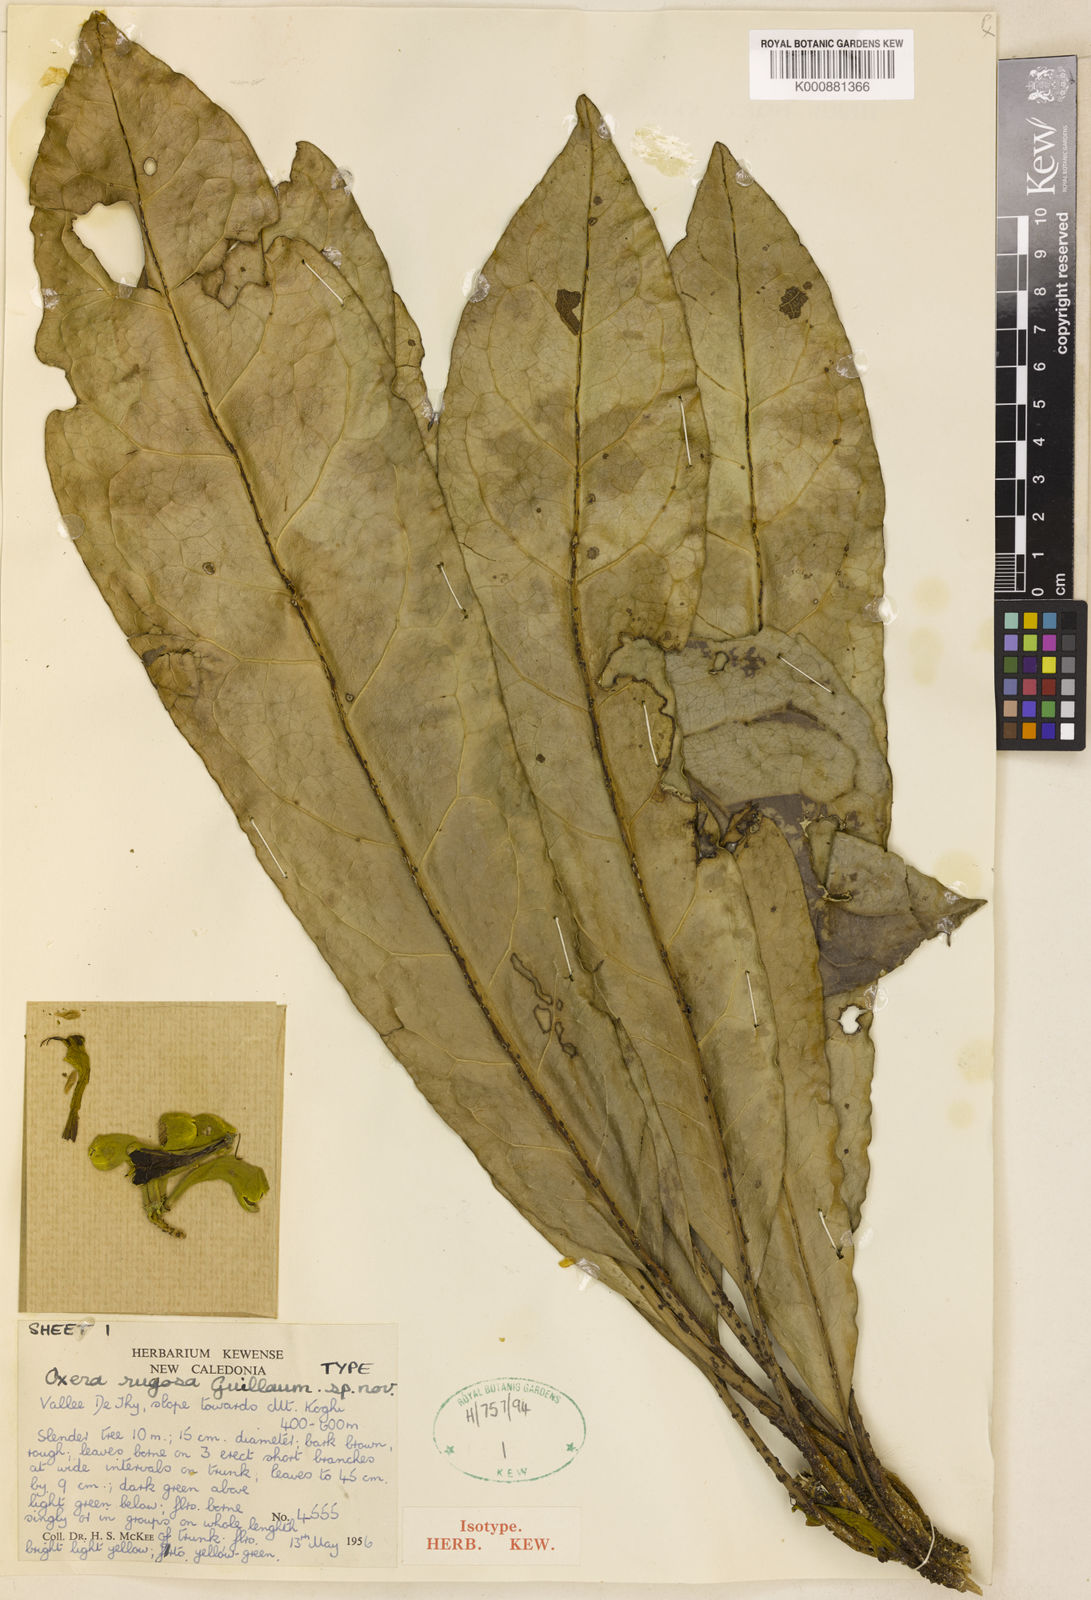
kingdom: Plantae
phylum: Tracheophyta
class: Magnoliopsida
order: Lamiales
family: Lamiaceae
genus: Oxera
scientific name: Oxera rugosa
